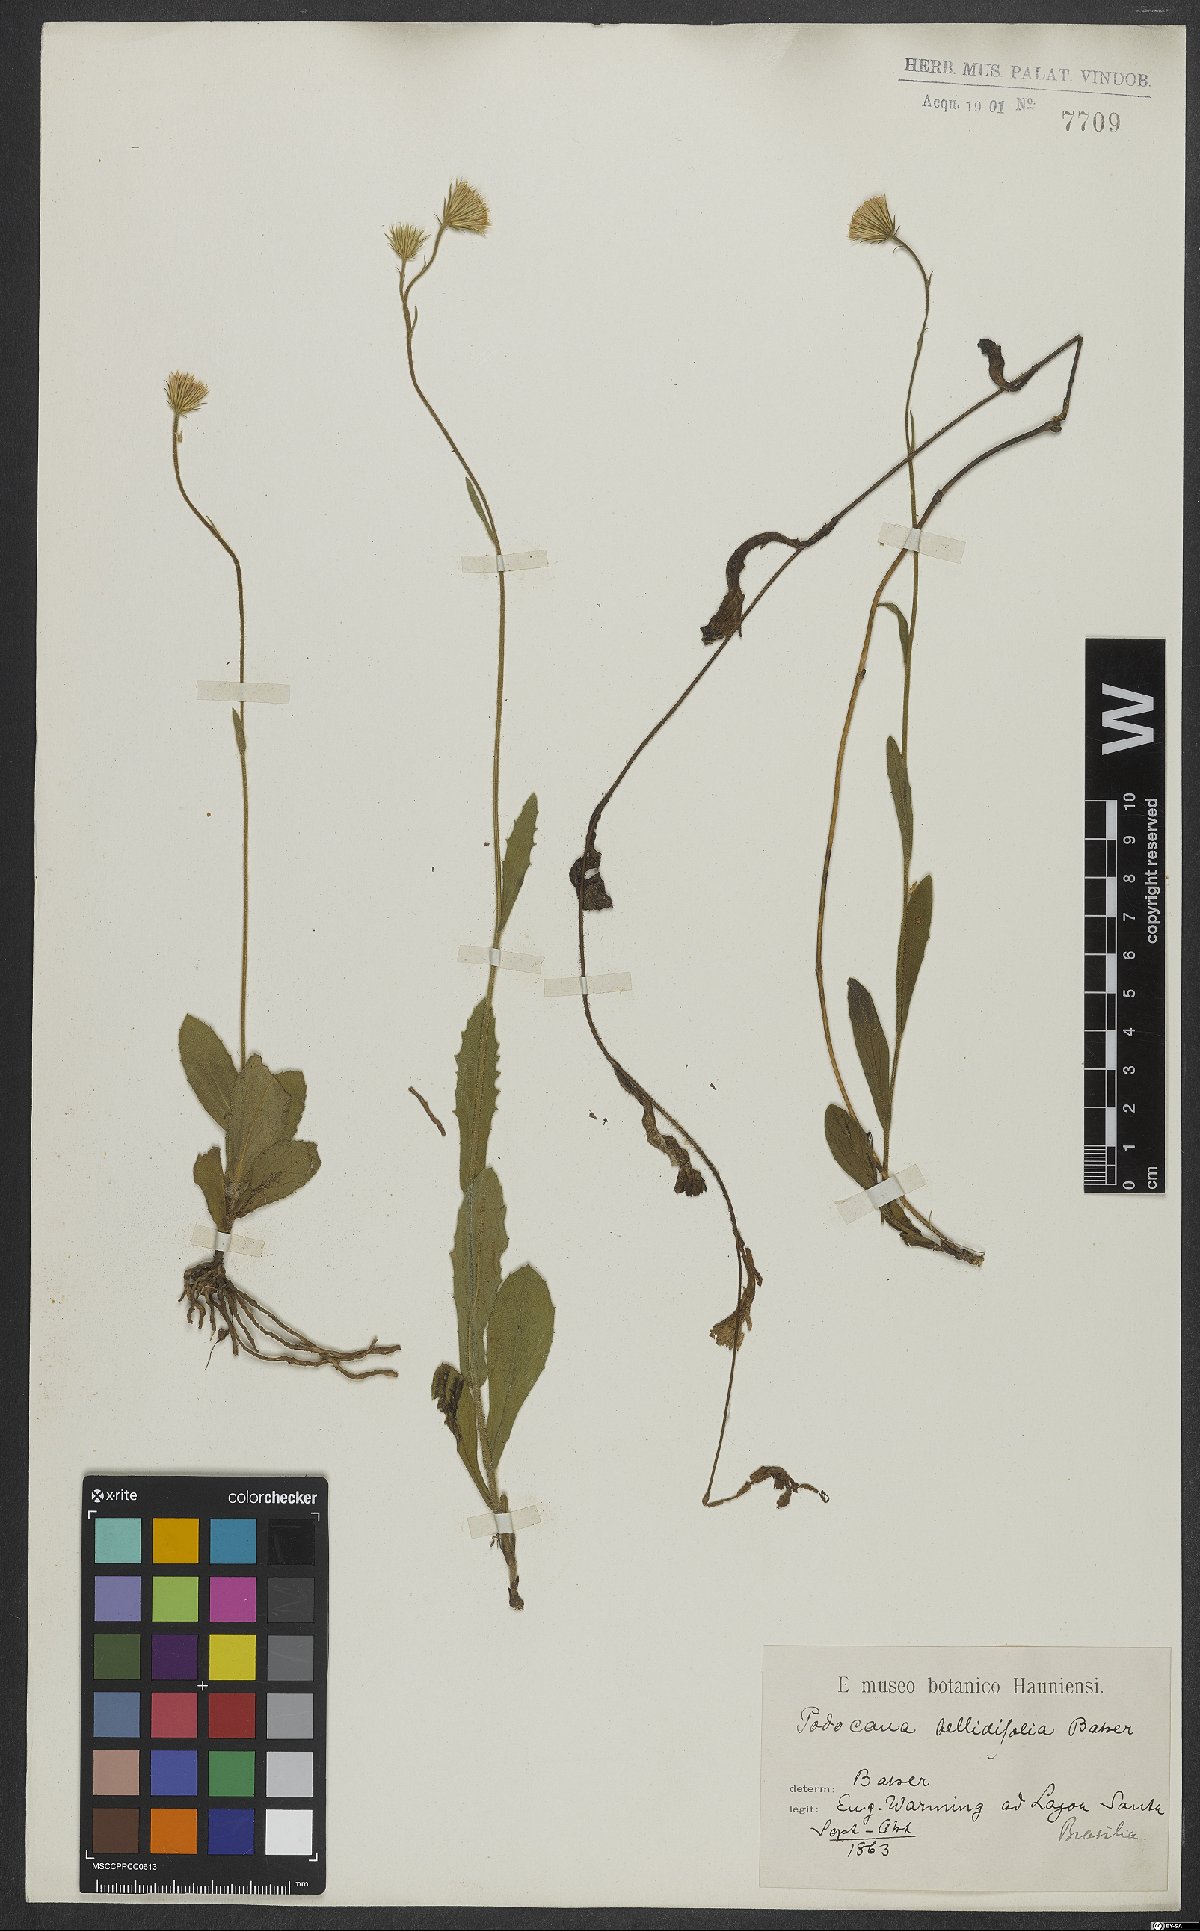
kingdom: Plantae
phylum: Tracheophyta
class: Magnoliopsida
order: Asterales
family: Asteraceae
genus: Podocoma
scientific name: Podocoma bellidifolia
